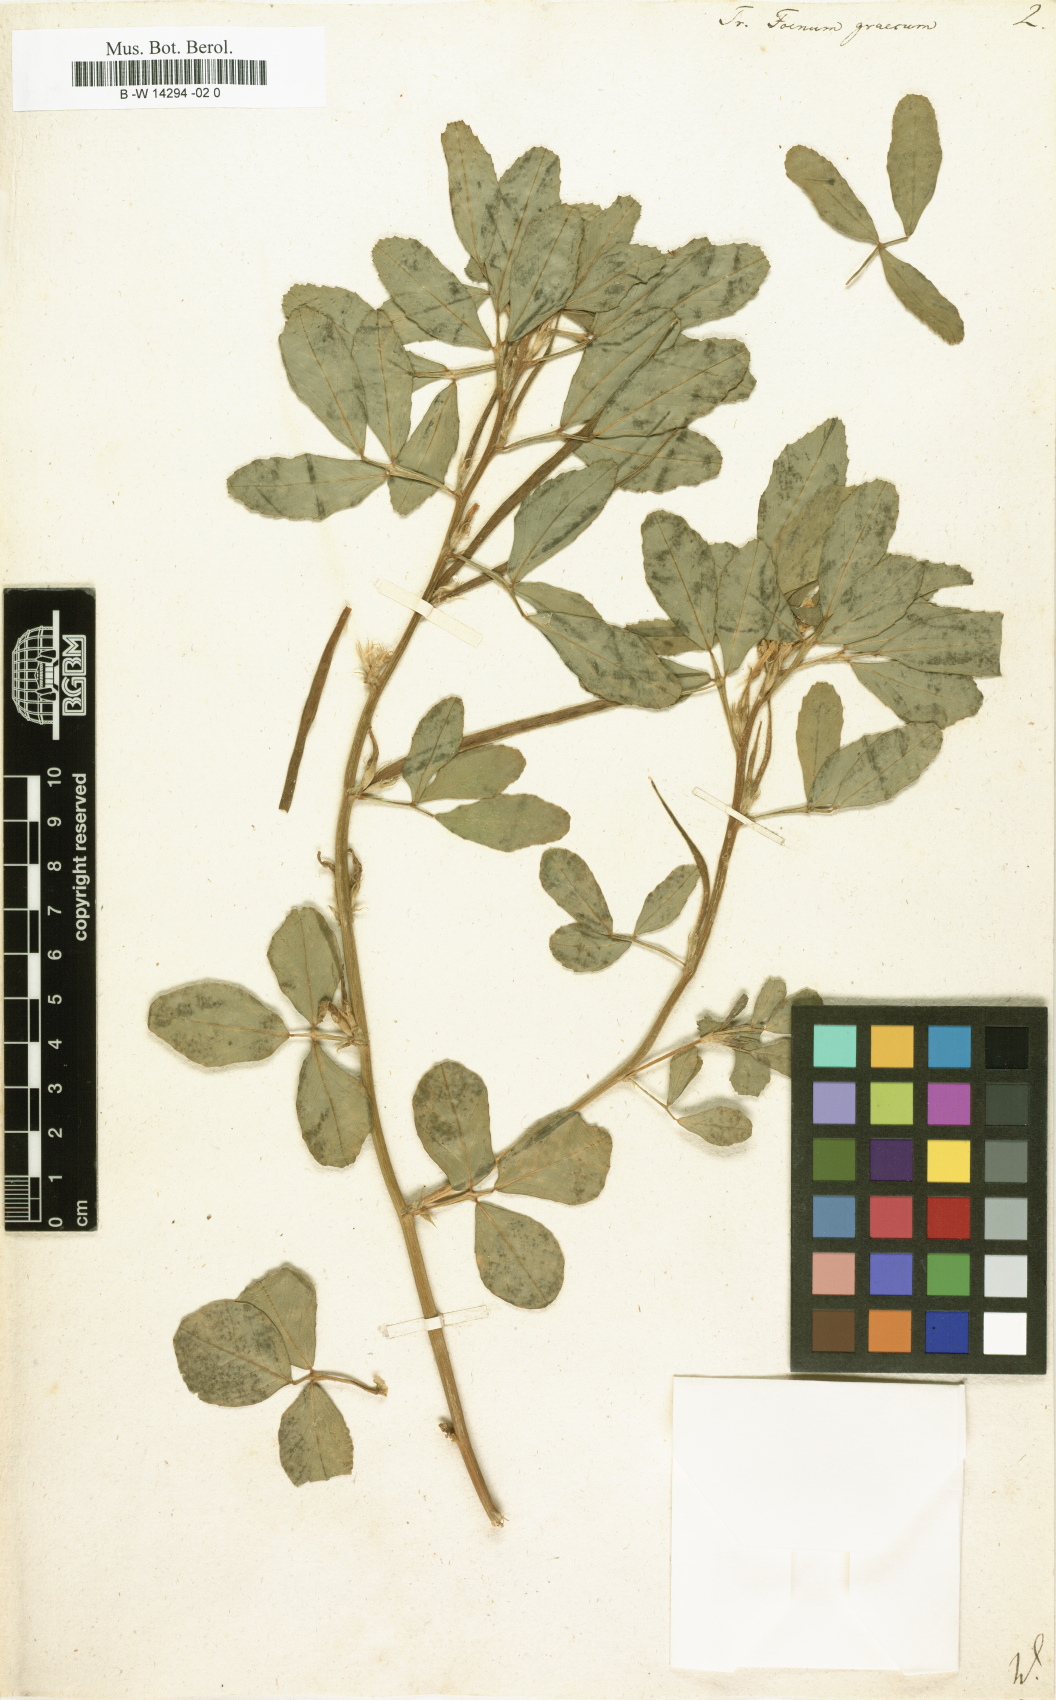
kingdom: Plantae
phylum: Tracheophyta
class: Magnoliopsida
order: Fabales
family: Fabaceae
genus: Trigonella
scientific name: Trigonella foenum-graecum
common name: Fenugreek
